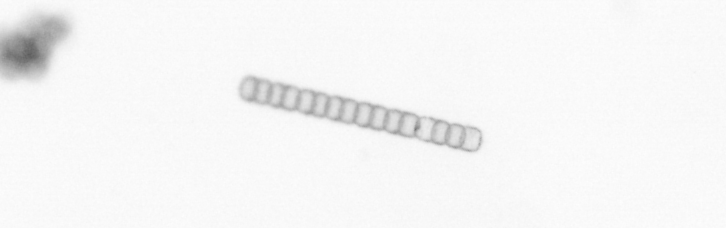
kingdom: Chromista
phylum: Ochrophyta
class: Bacillariophyceae
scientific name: Bacillariophyceae
